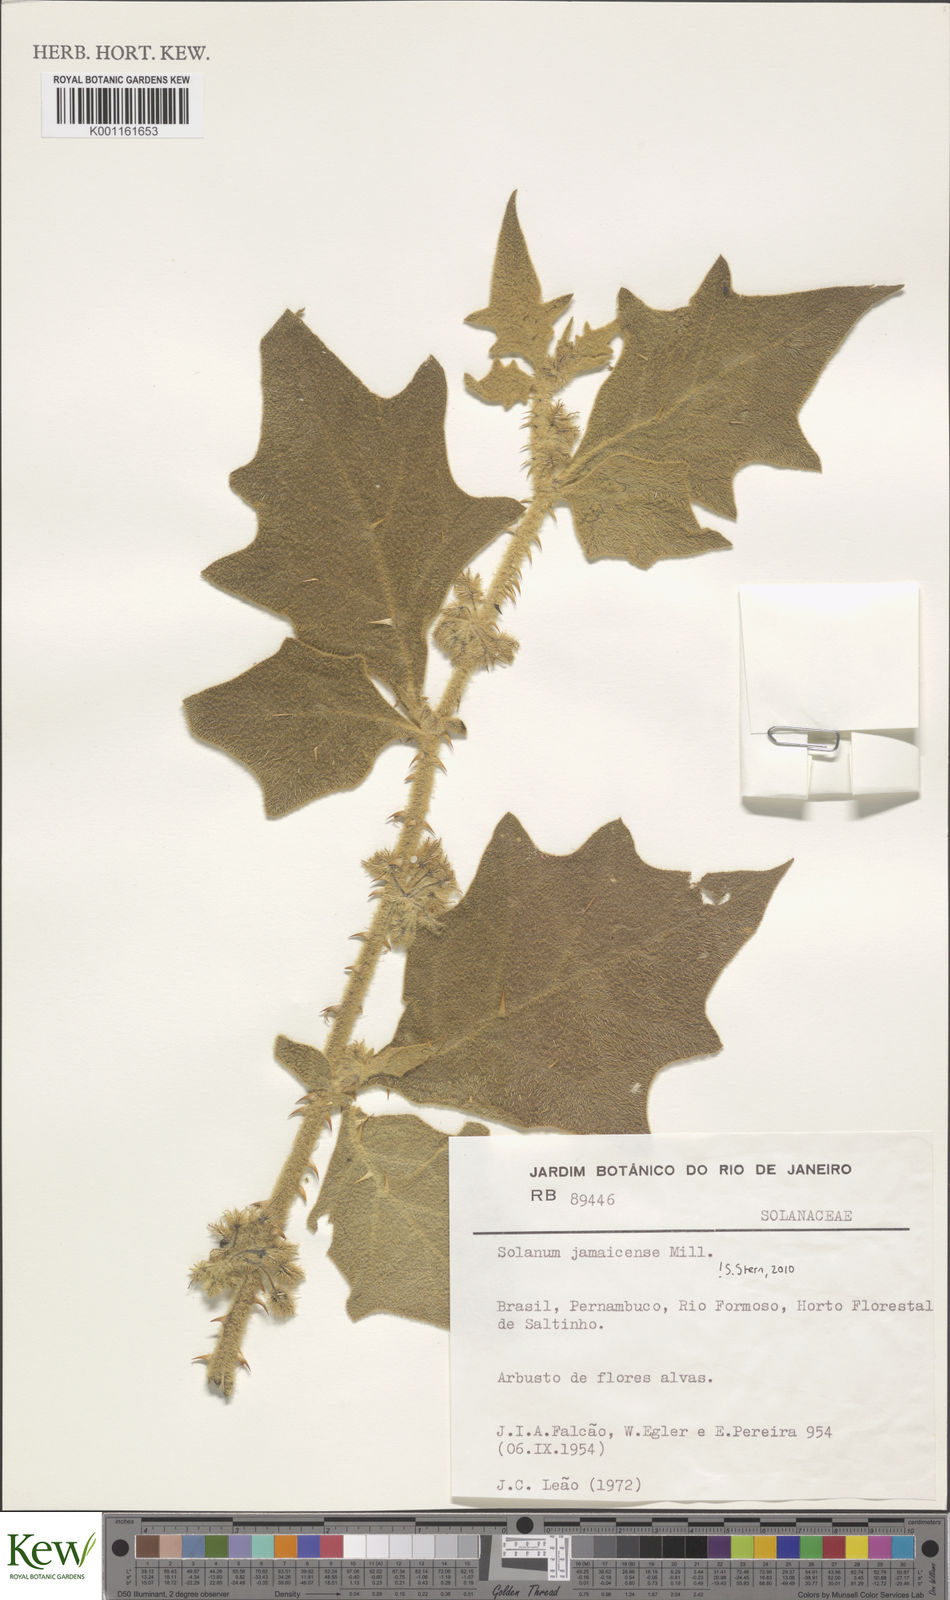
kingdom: Plantae
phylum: Tracheophyta
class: Magnoliopsida
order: Solanales
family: Solanaceae
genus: Solanum
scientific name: Solanum jamaicense
